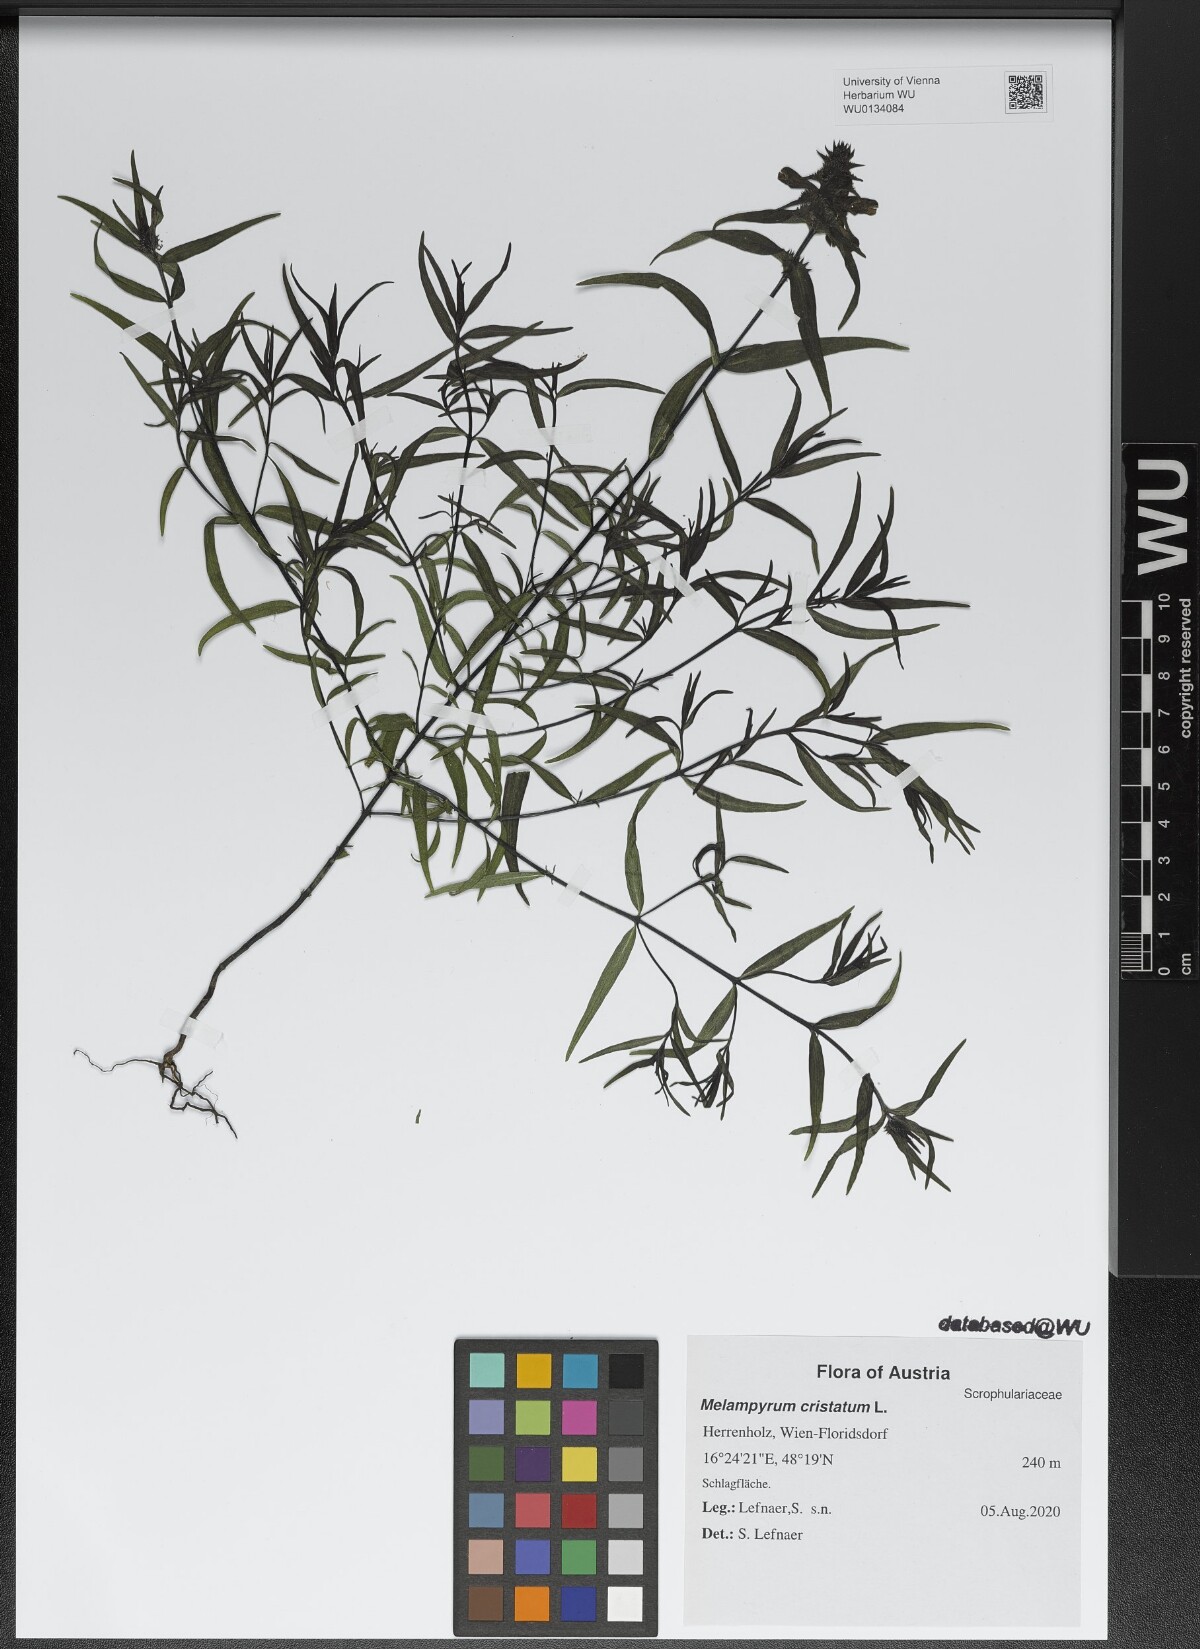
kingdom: Plantae
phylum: Tracheophyta
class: Magnoliopsida
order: Lamiales
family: Orobanchaceae
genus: Melampyrum
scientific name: Melampyrum cristatum
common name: Crested cow-wheat
